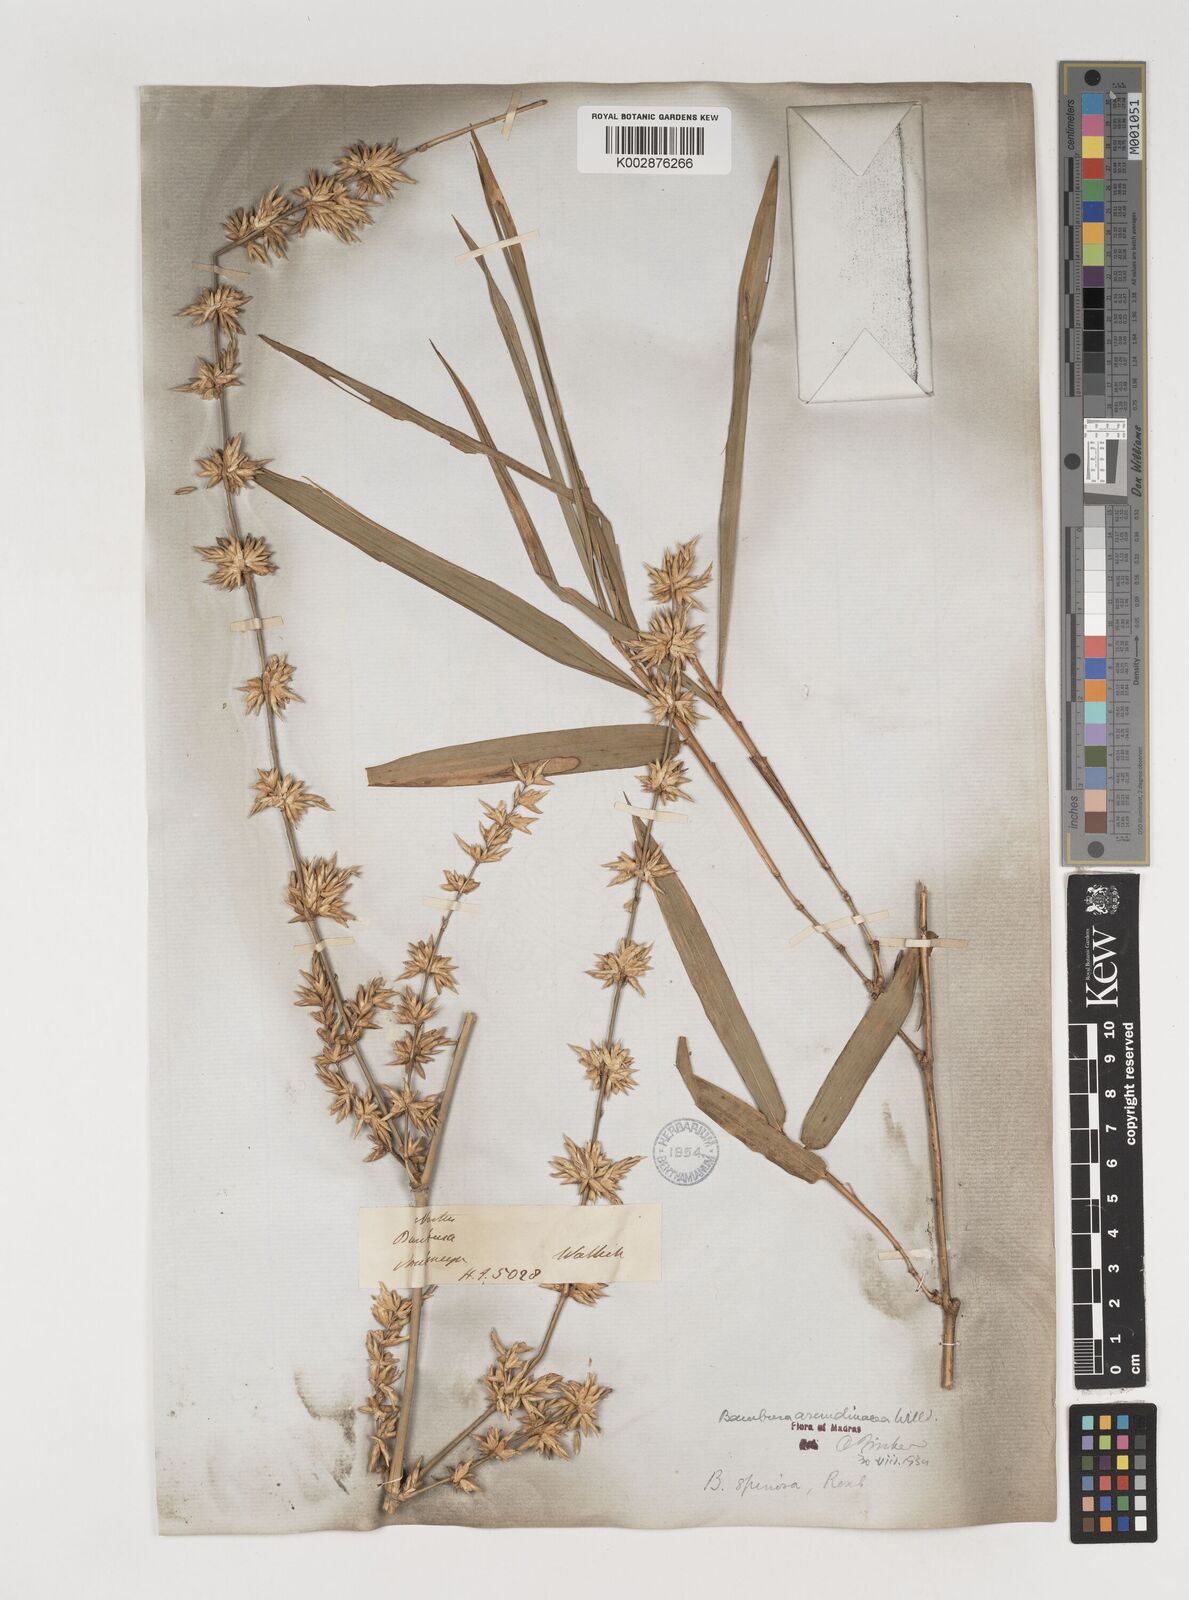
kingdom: Plantae
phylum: Tracheophyta
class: Liliopsida
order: Poales
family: Poaceae
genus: Bambusa
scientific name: Bambusa bambos
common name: Indian thorny bamboo
